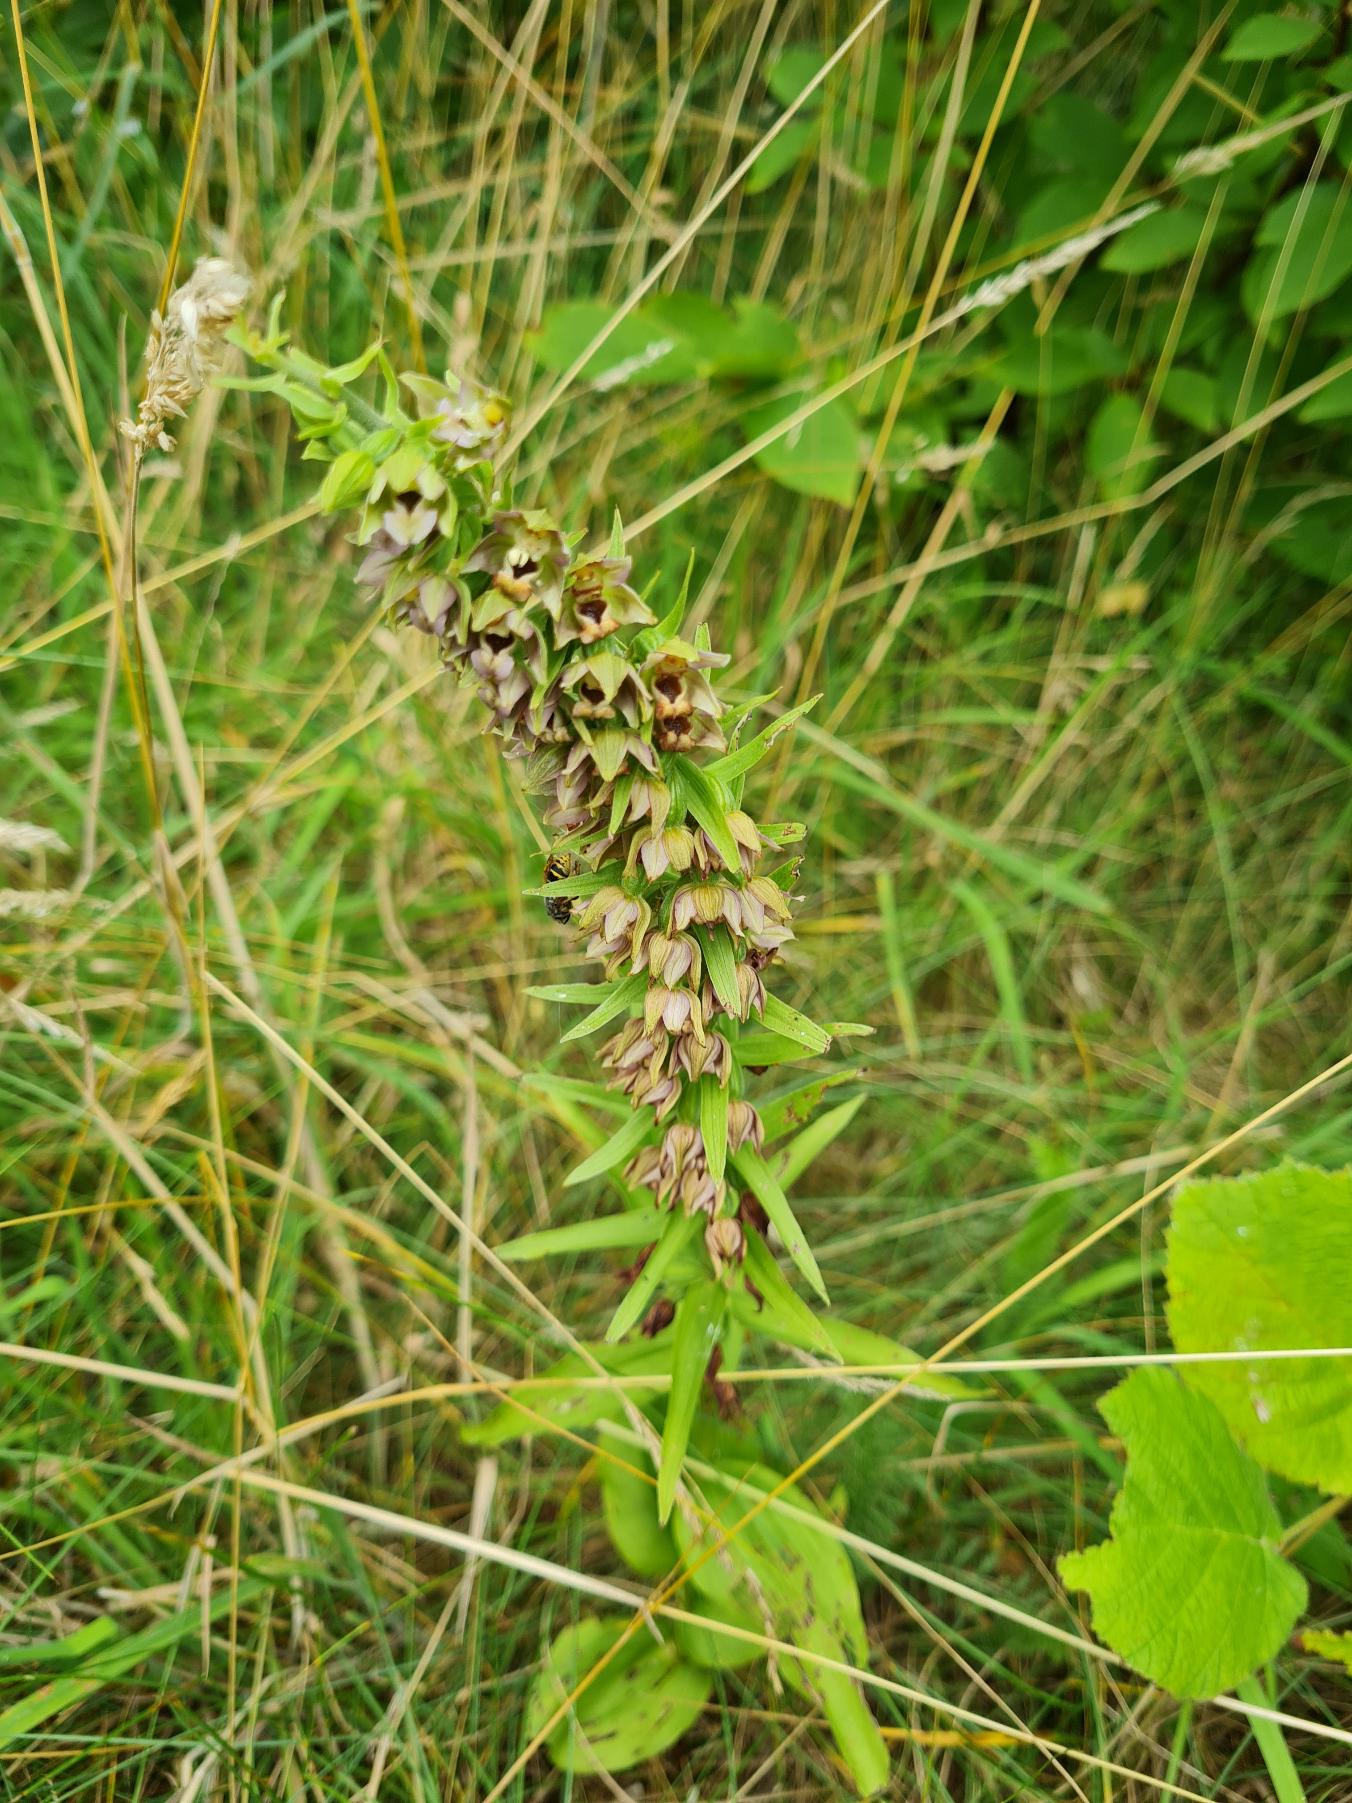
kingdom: Plantae
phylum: Tracheophyta
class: Liliopsida
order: Asparagales
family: Orchidaceae
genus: Epipactis
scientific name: Epipactis helleborine
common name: Skov-hullæbe
